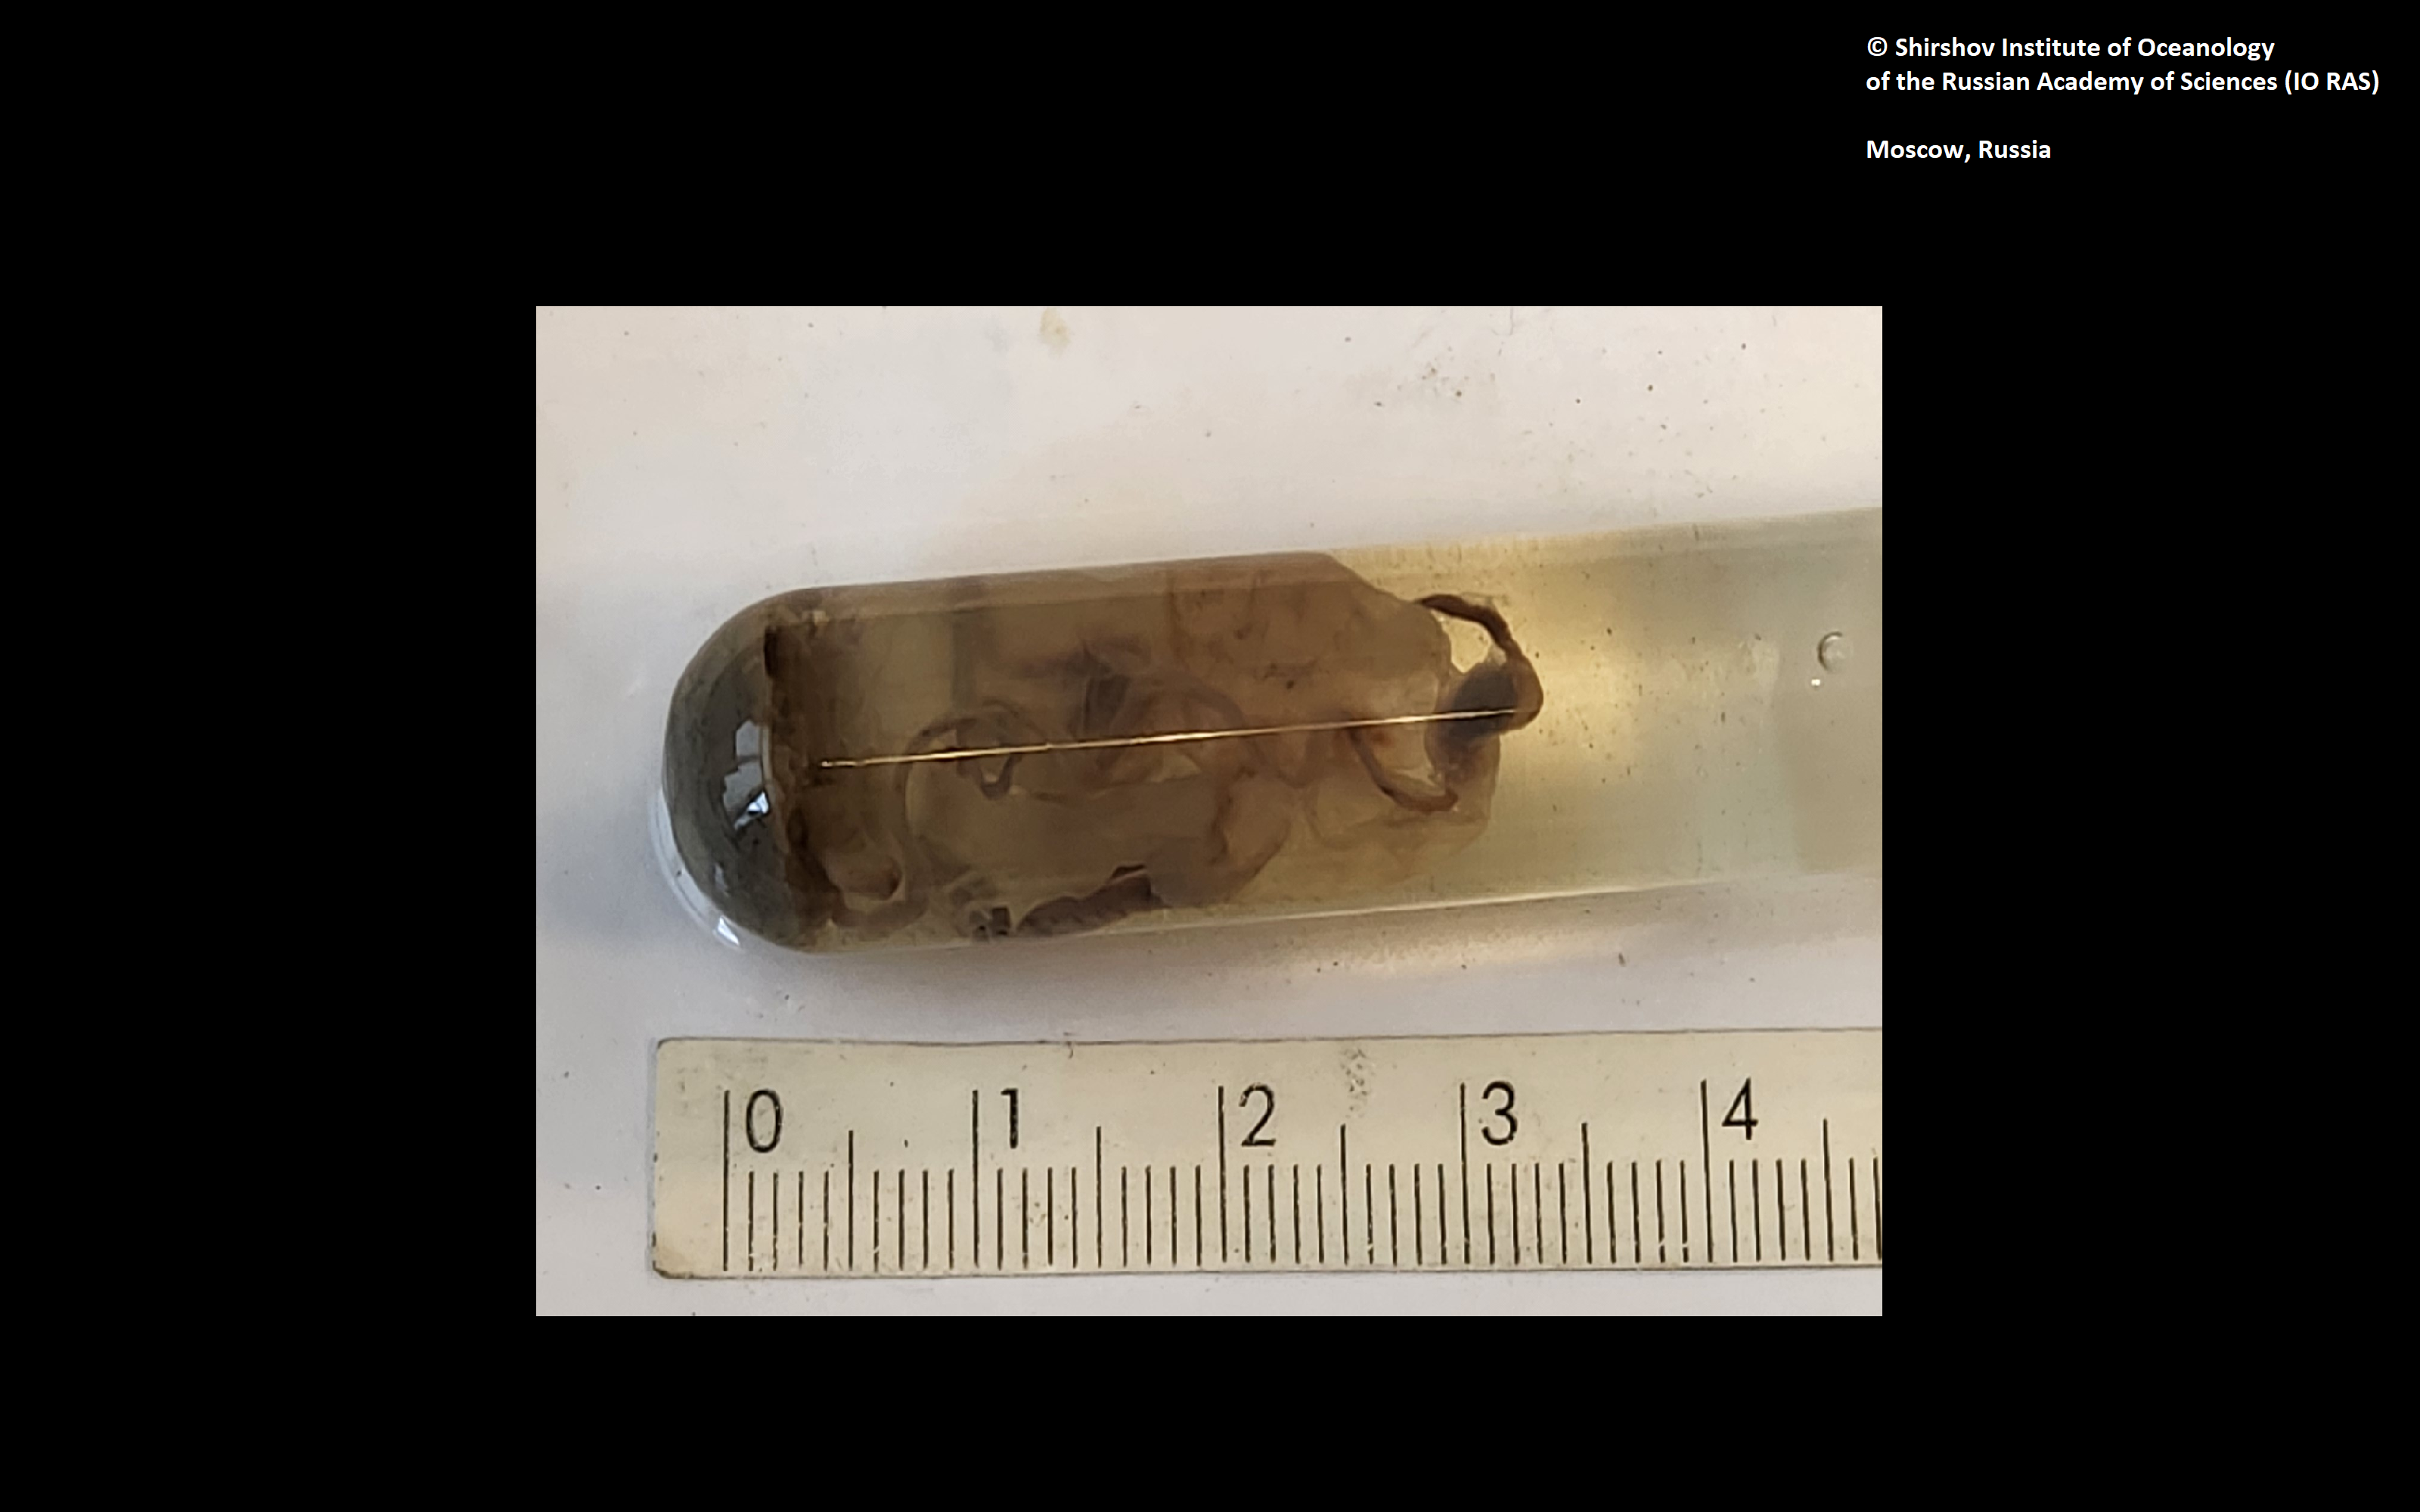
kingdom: Animalia
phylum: Annelida
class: Polychaeta
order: Echiuroidea
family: Bonelliidae
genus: Sluiterina
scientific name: Sluiterina vitjazi
